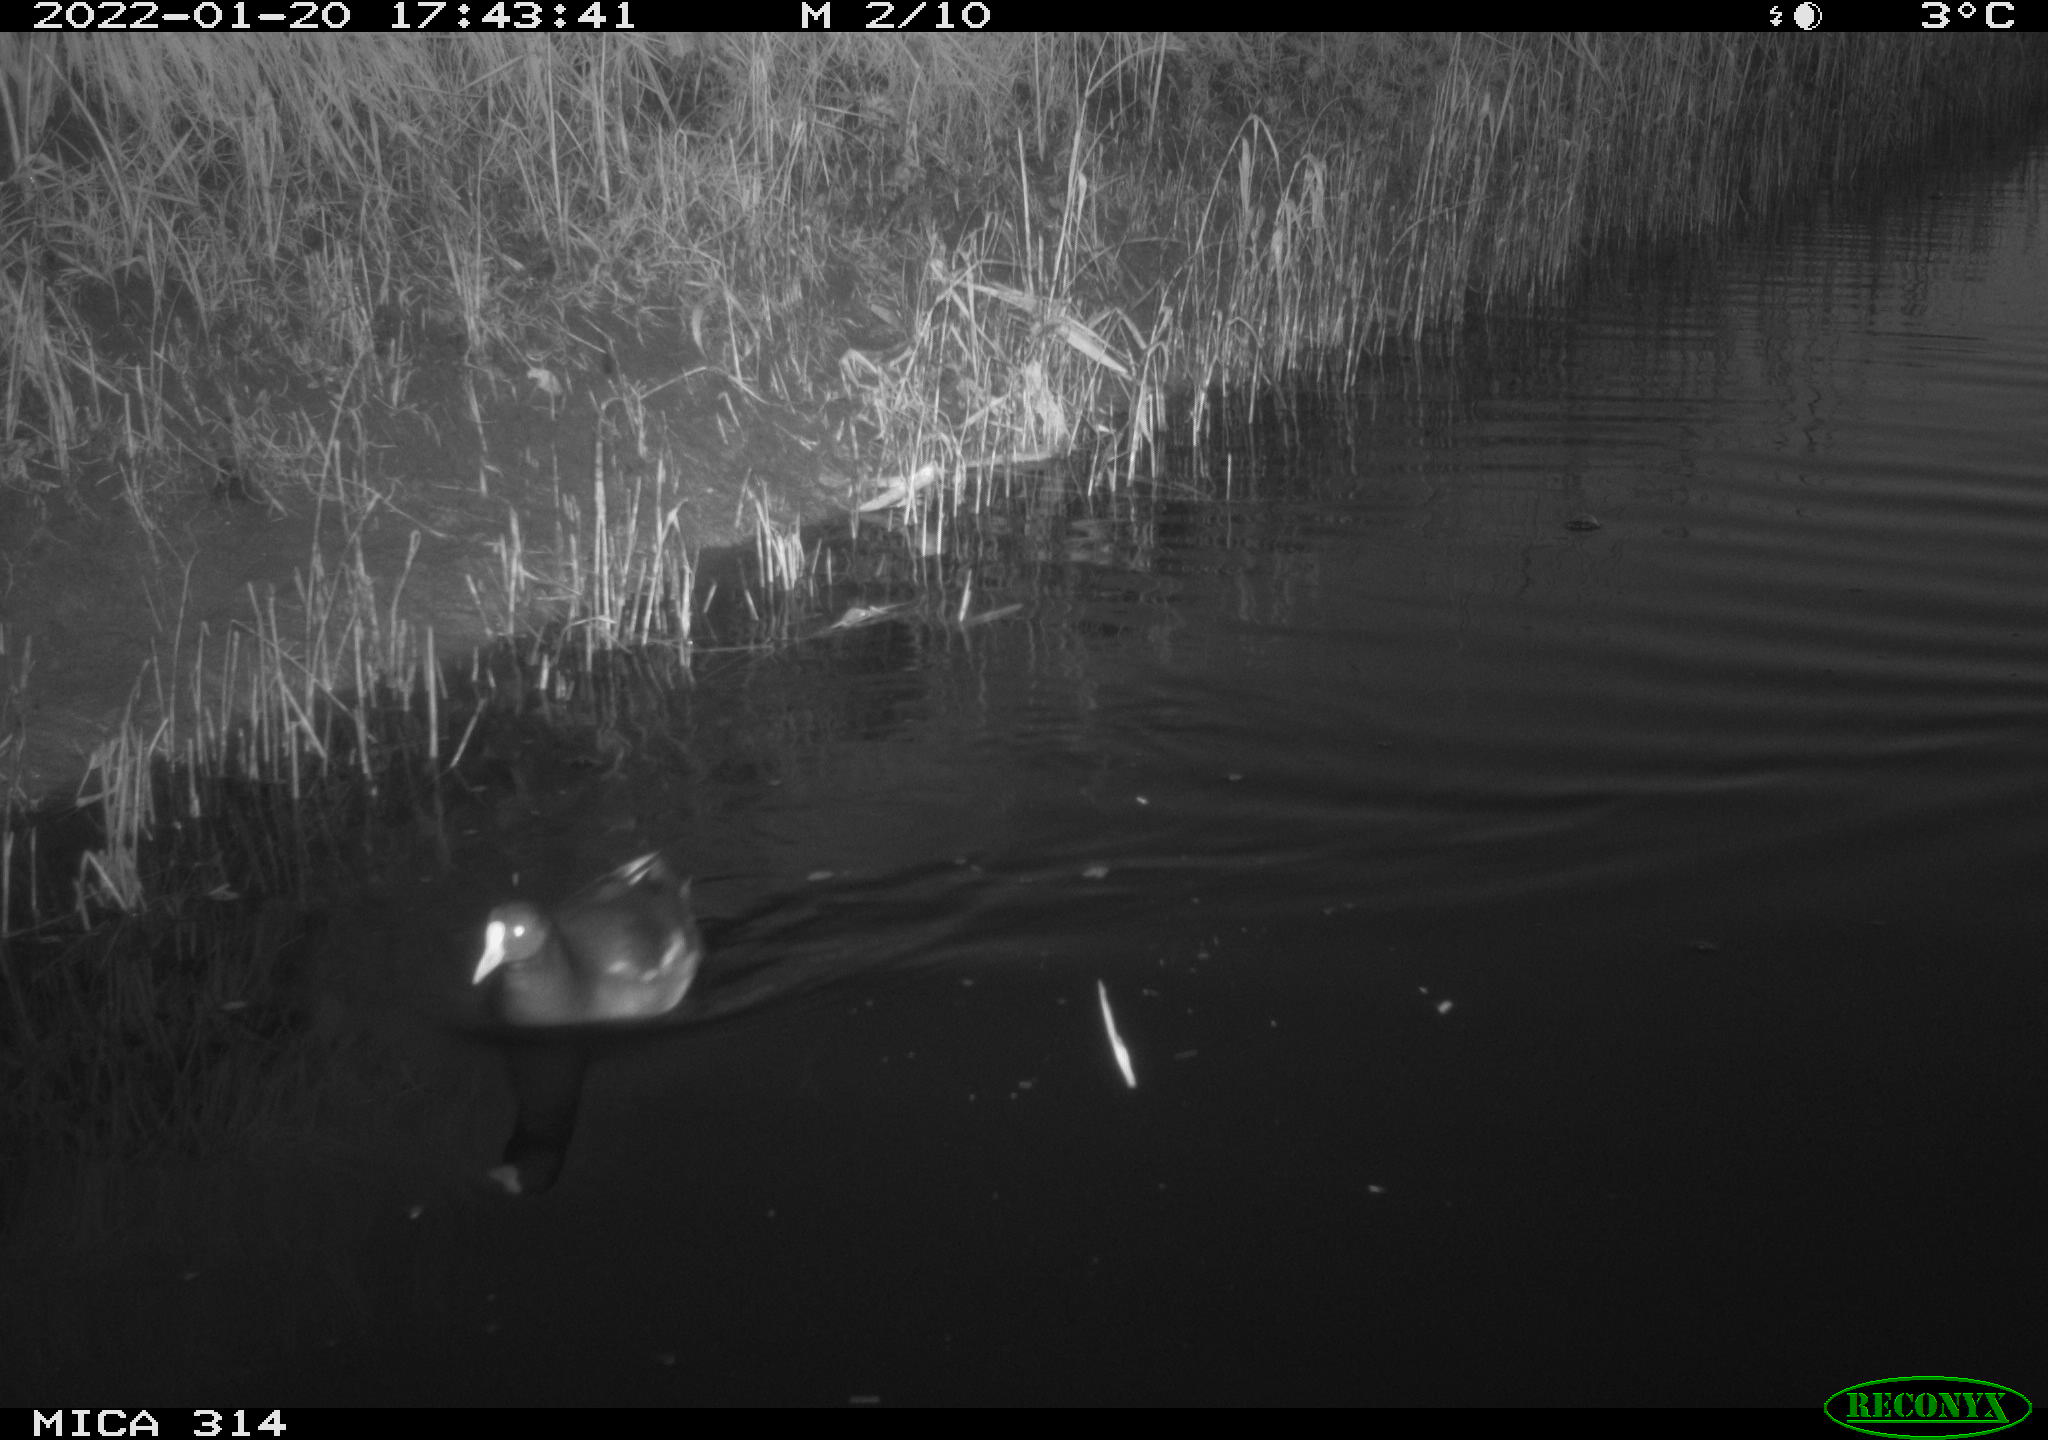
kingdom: Animalia
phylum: Chordata
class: Aves
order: Gruiformes
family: Rallidae
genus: Gallinula
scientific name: Gallinula chloropus
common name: Common moorhen
